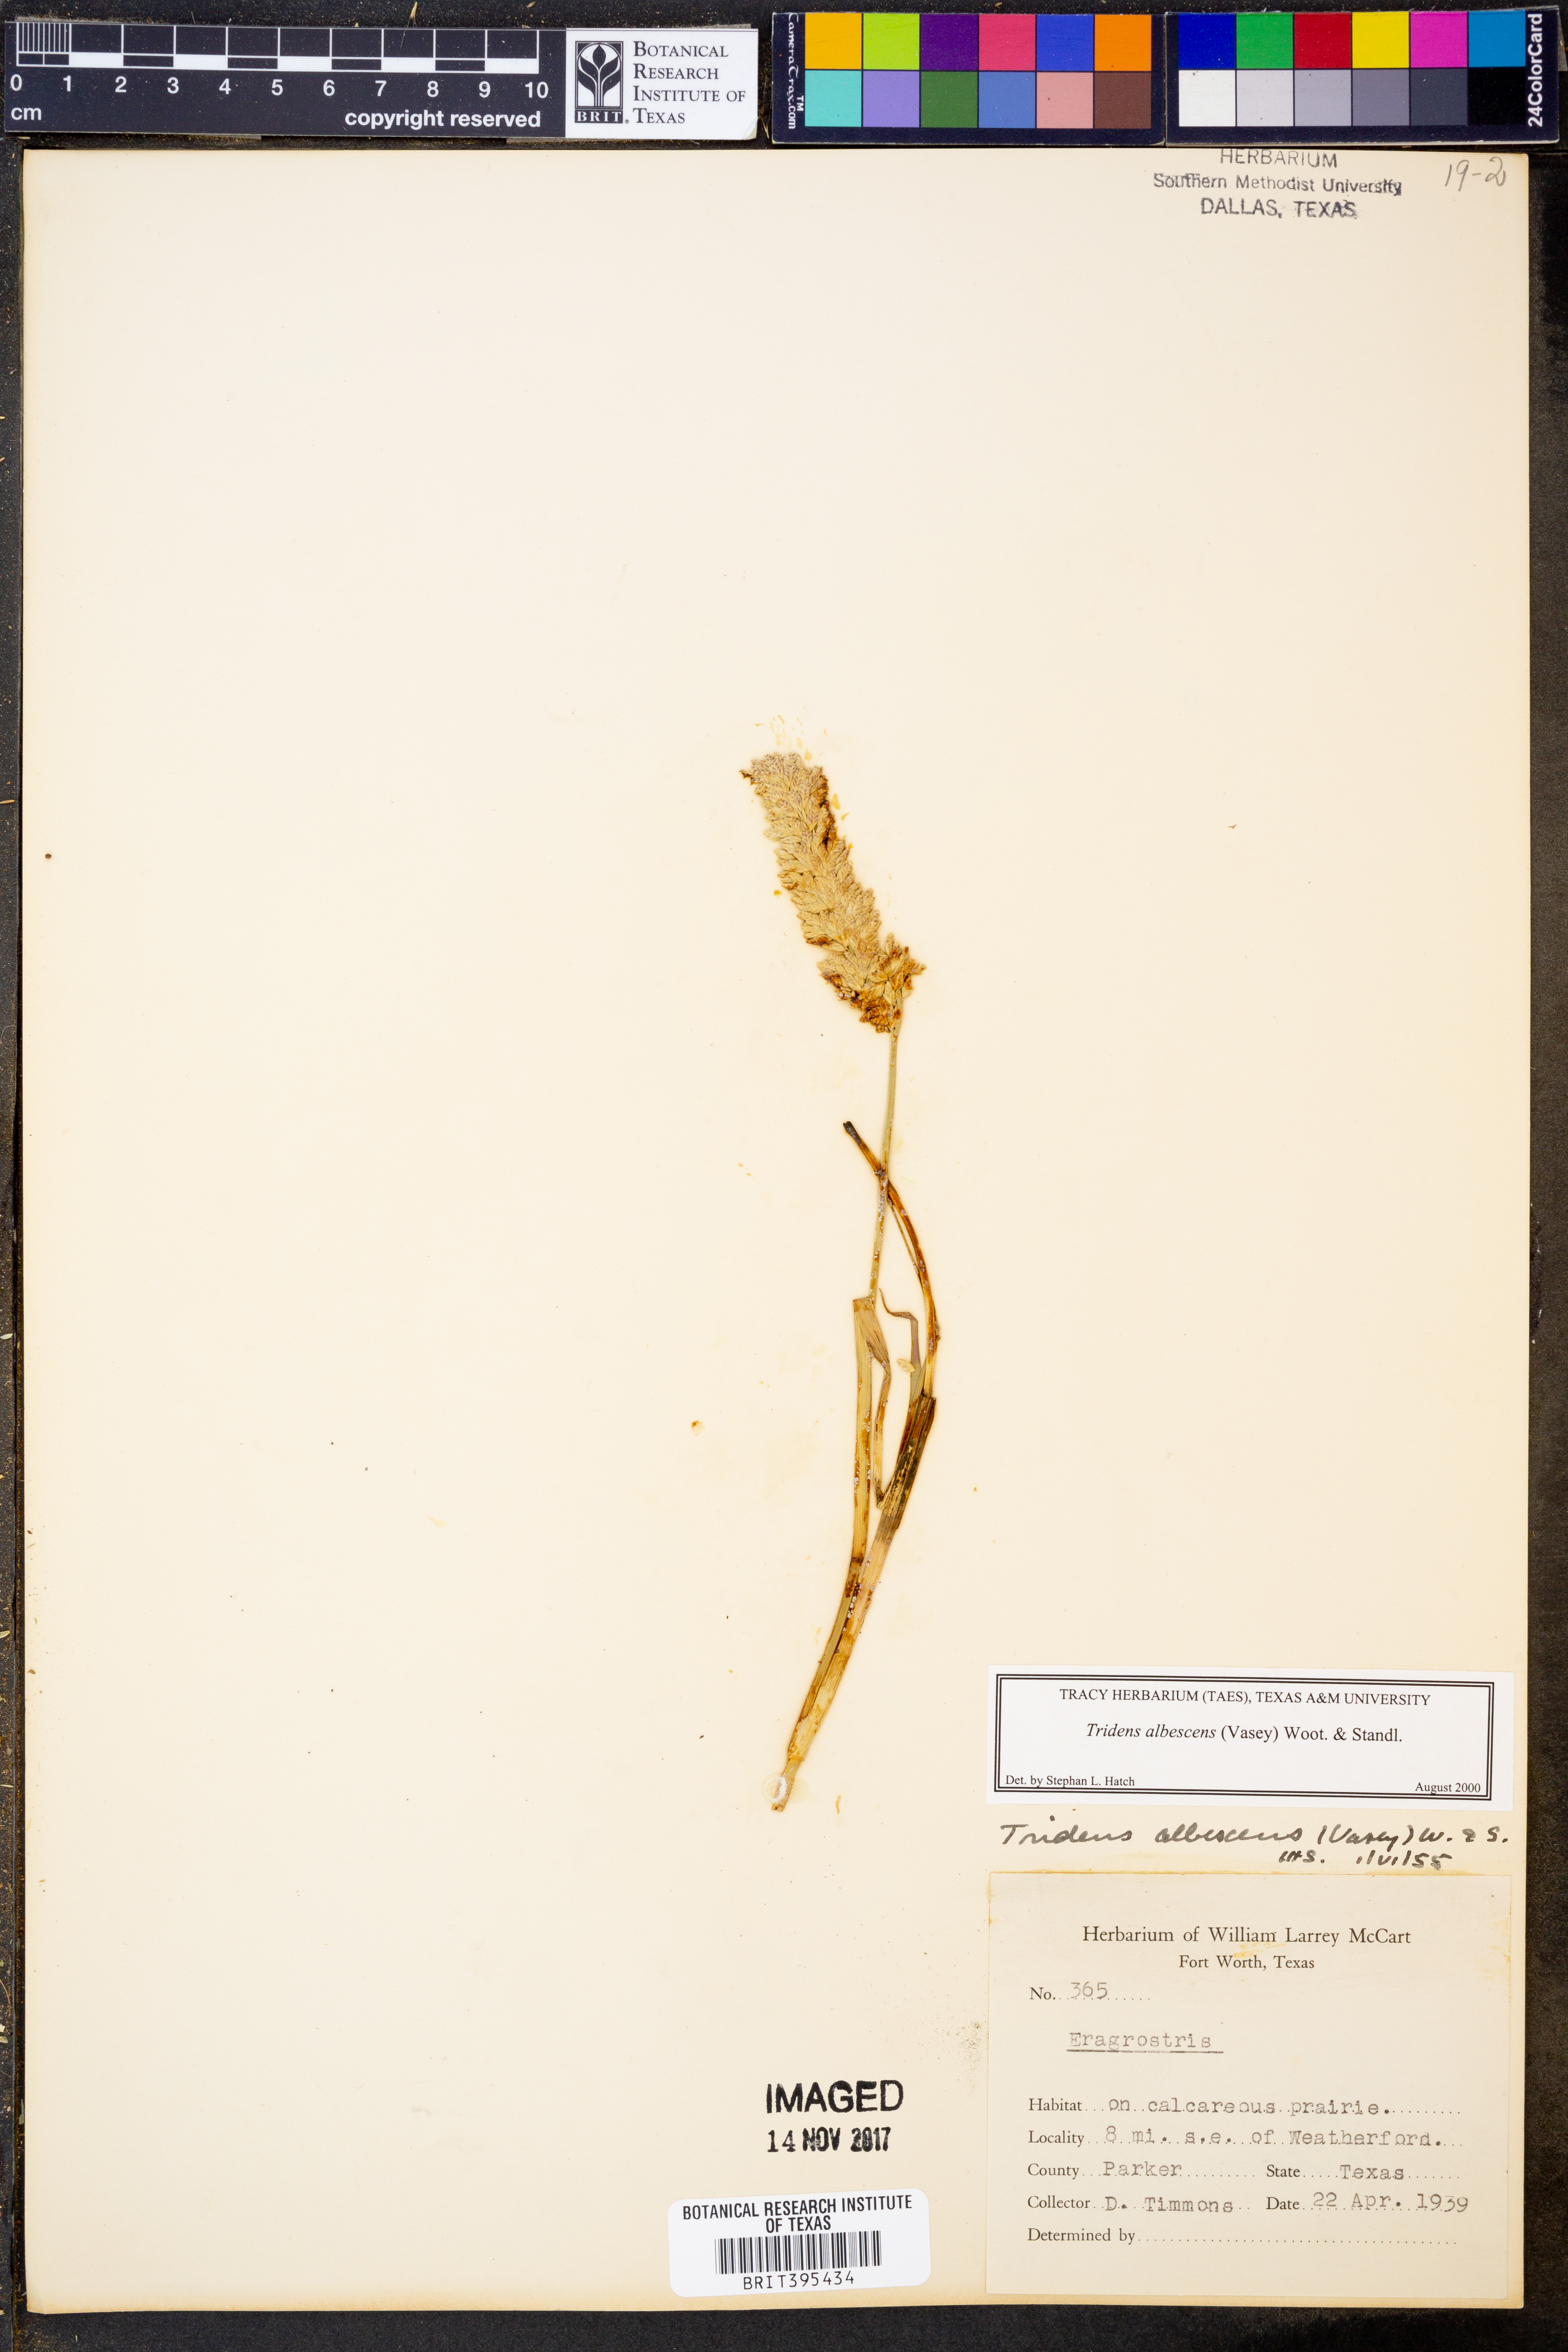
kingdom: Plantae
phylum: Tracheophyta
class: Liliopsida
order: Poales
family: Poaceae
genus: Tridens
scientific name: Tridens albescens
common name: White tridens
